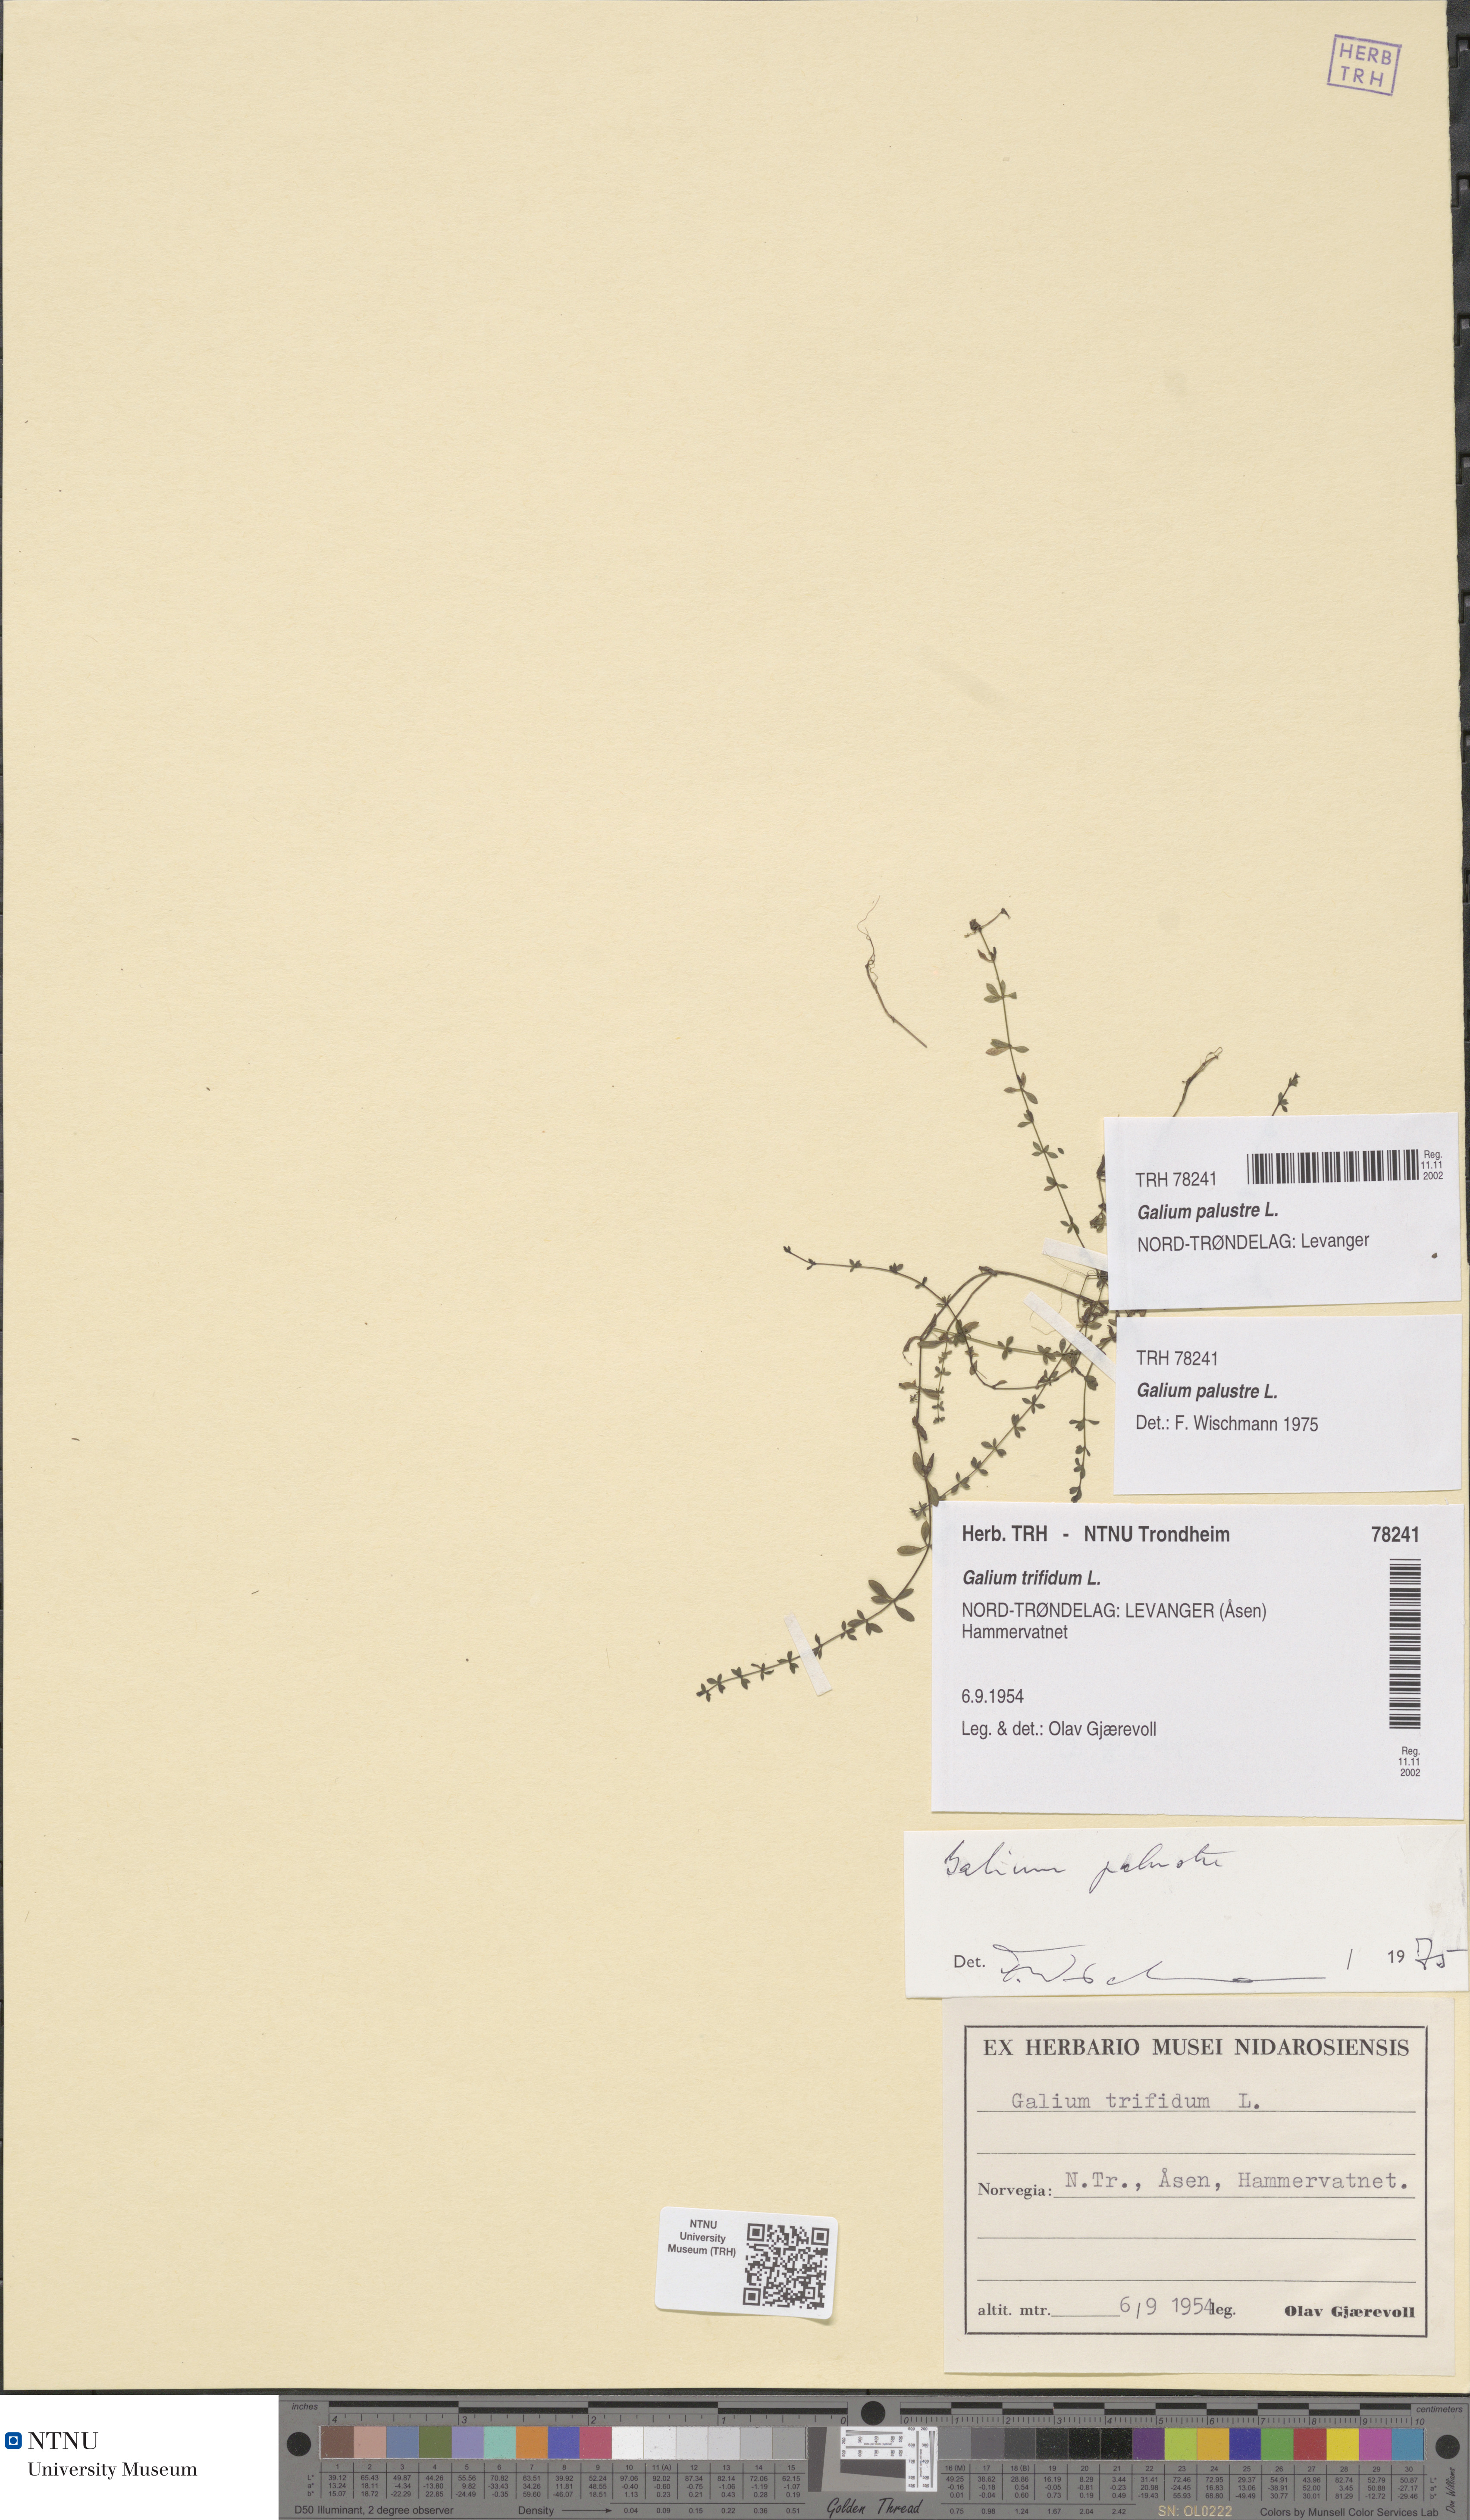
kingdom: Plantae
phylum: Tracheophyta
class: Magnoliopsida
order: Gentianales
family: Rubiaceae
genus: Galium
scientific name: Galium palustre
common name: Common marsh-bedstraw
